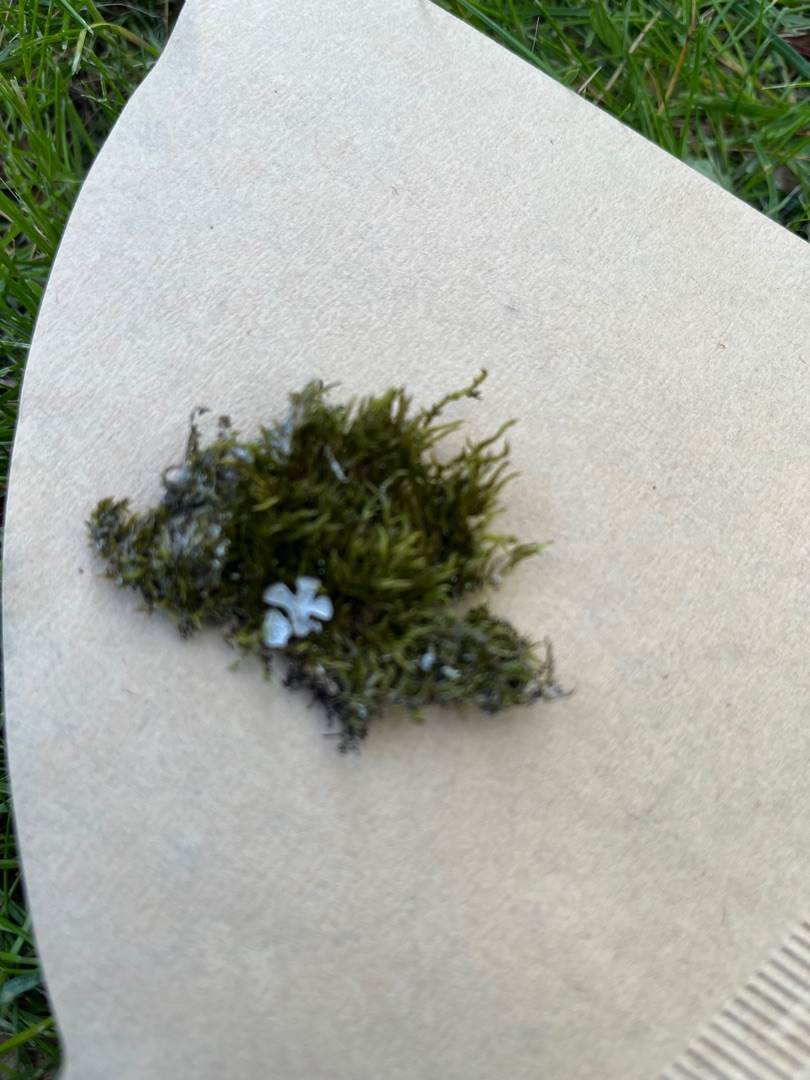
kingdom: Plantae
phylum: Bryophyta
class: Bryopsida
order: Hypnales
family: Hypnaceae
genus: Hypnum
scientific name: Hypnum
